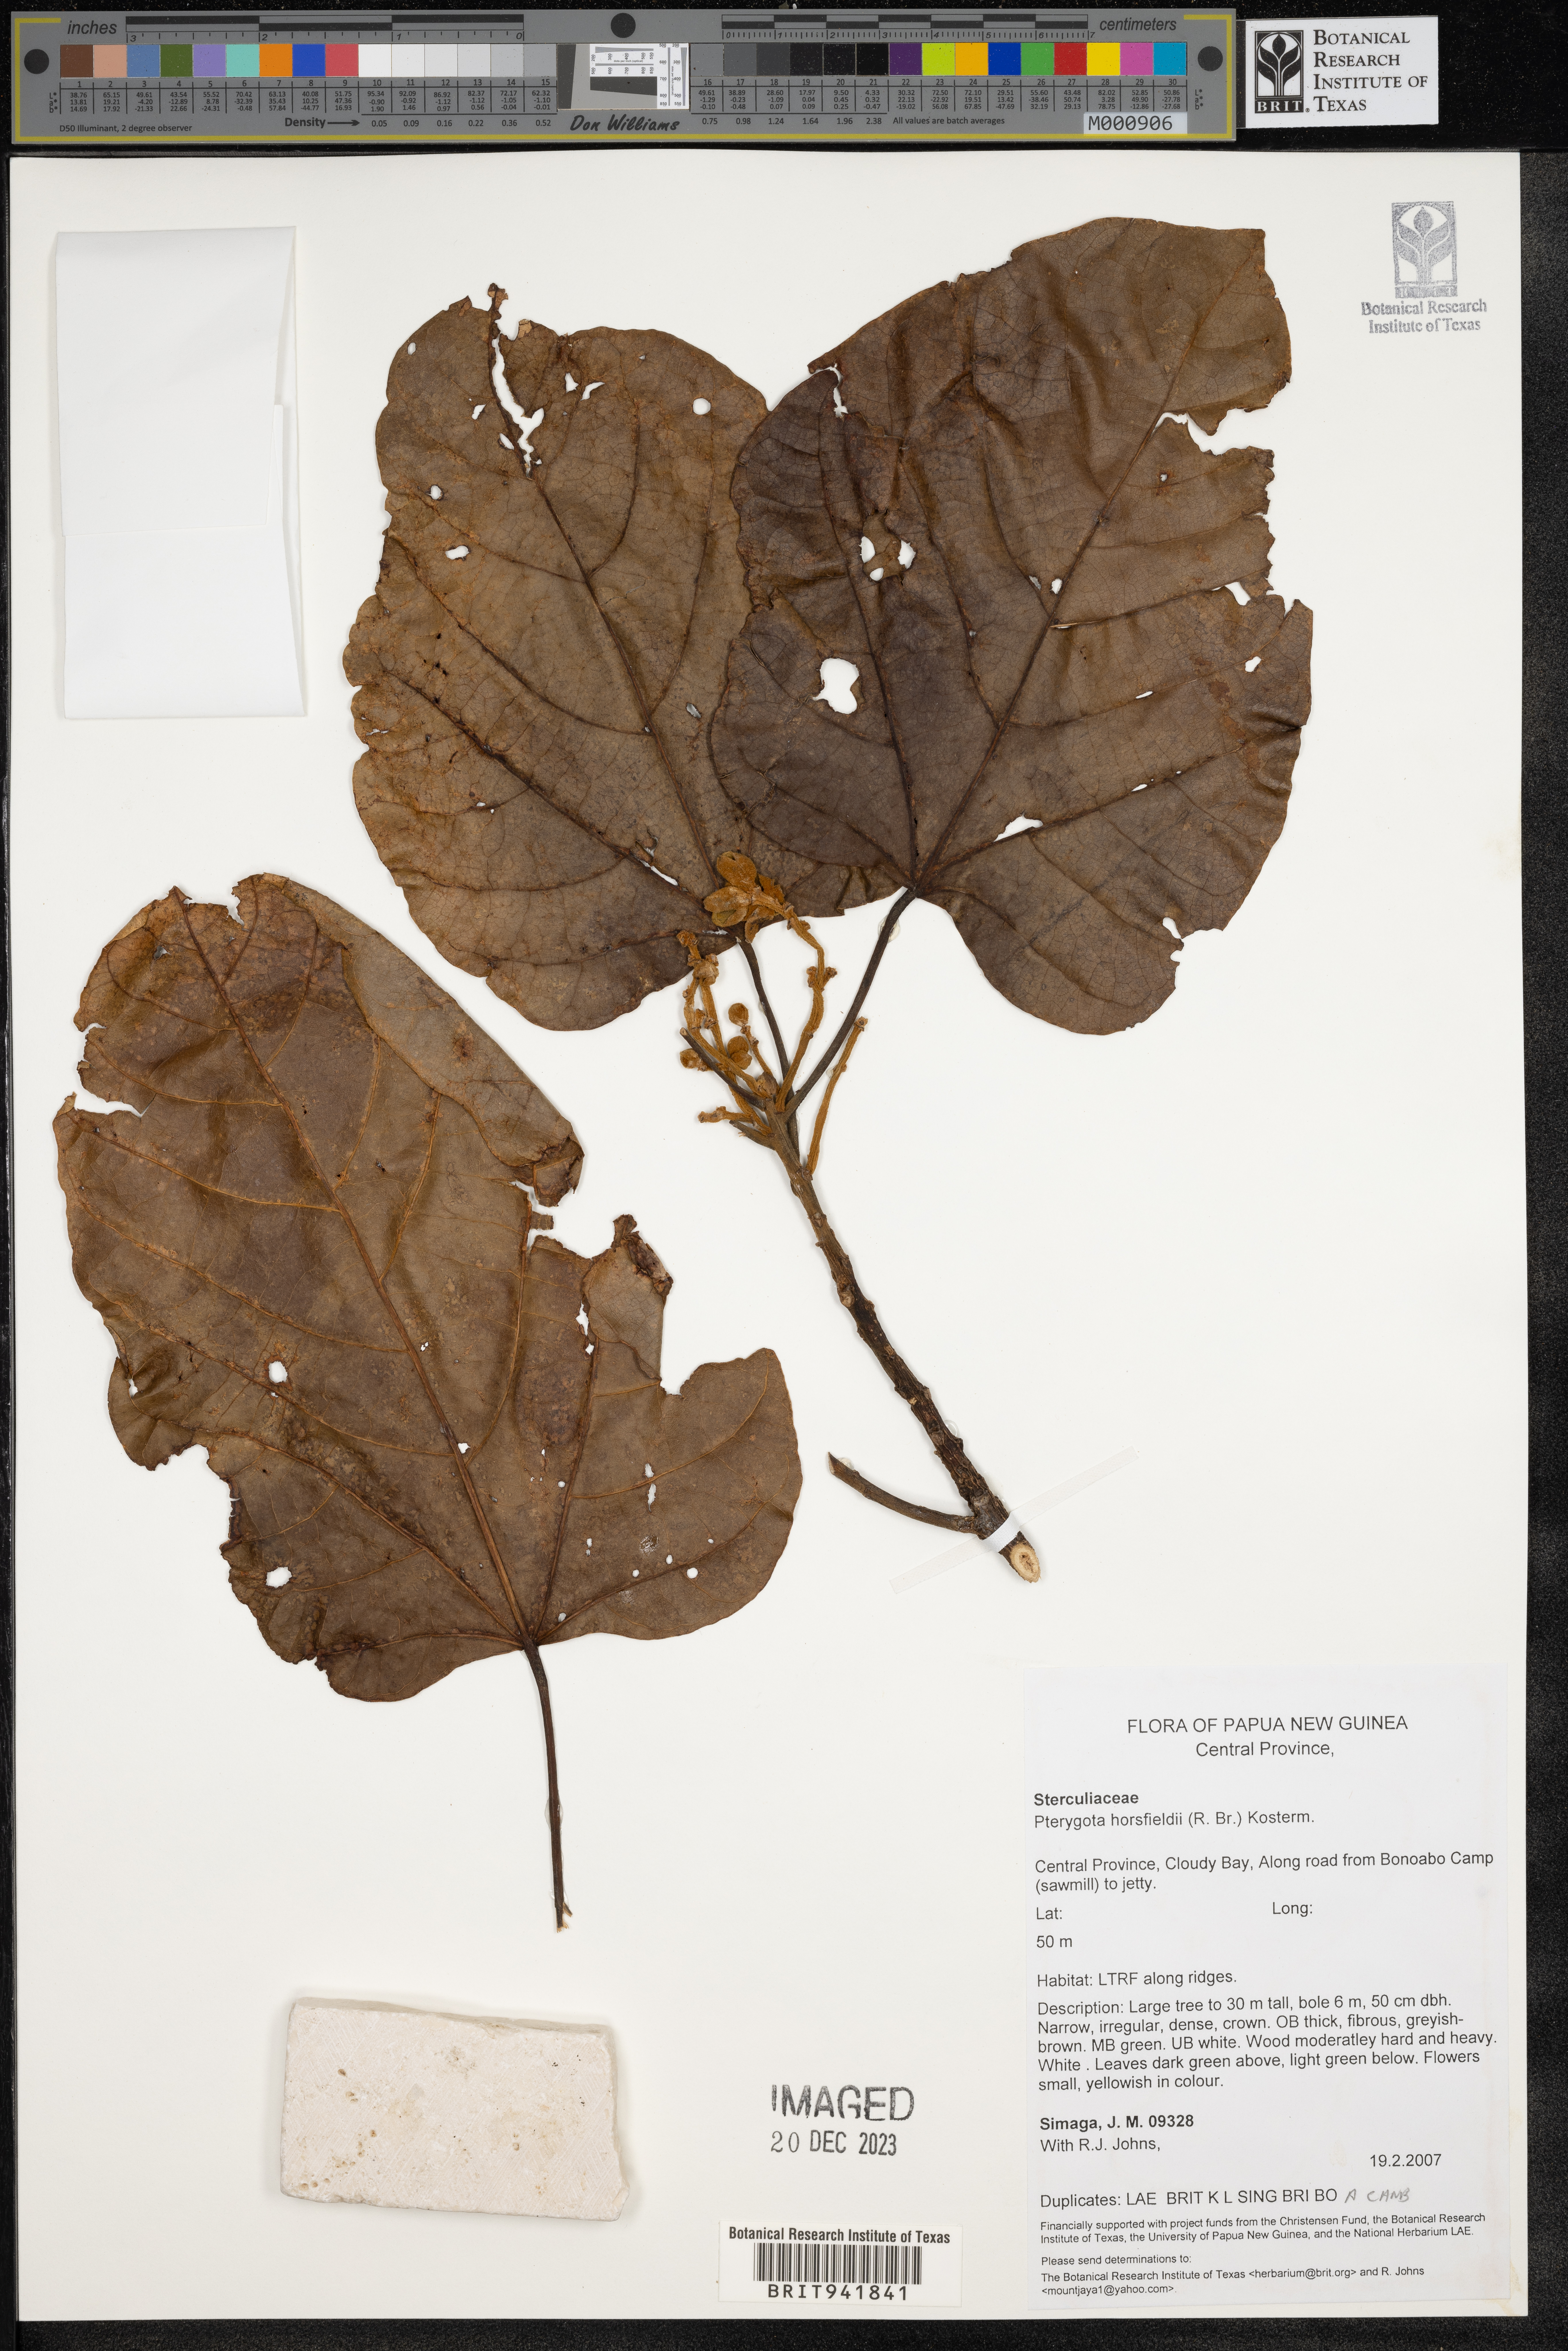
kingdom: Plantae
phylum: Tracheophyta
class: Magnoliopsida
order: Malvales
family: Malvaceae
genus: Pterygota
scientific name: Pterygota
